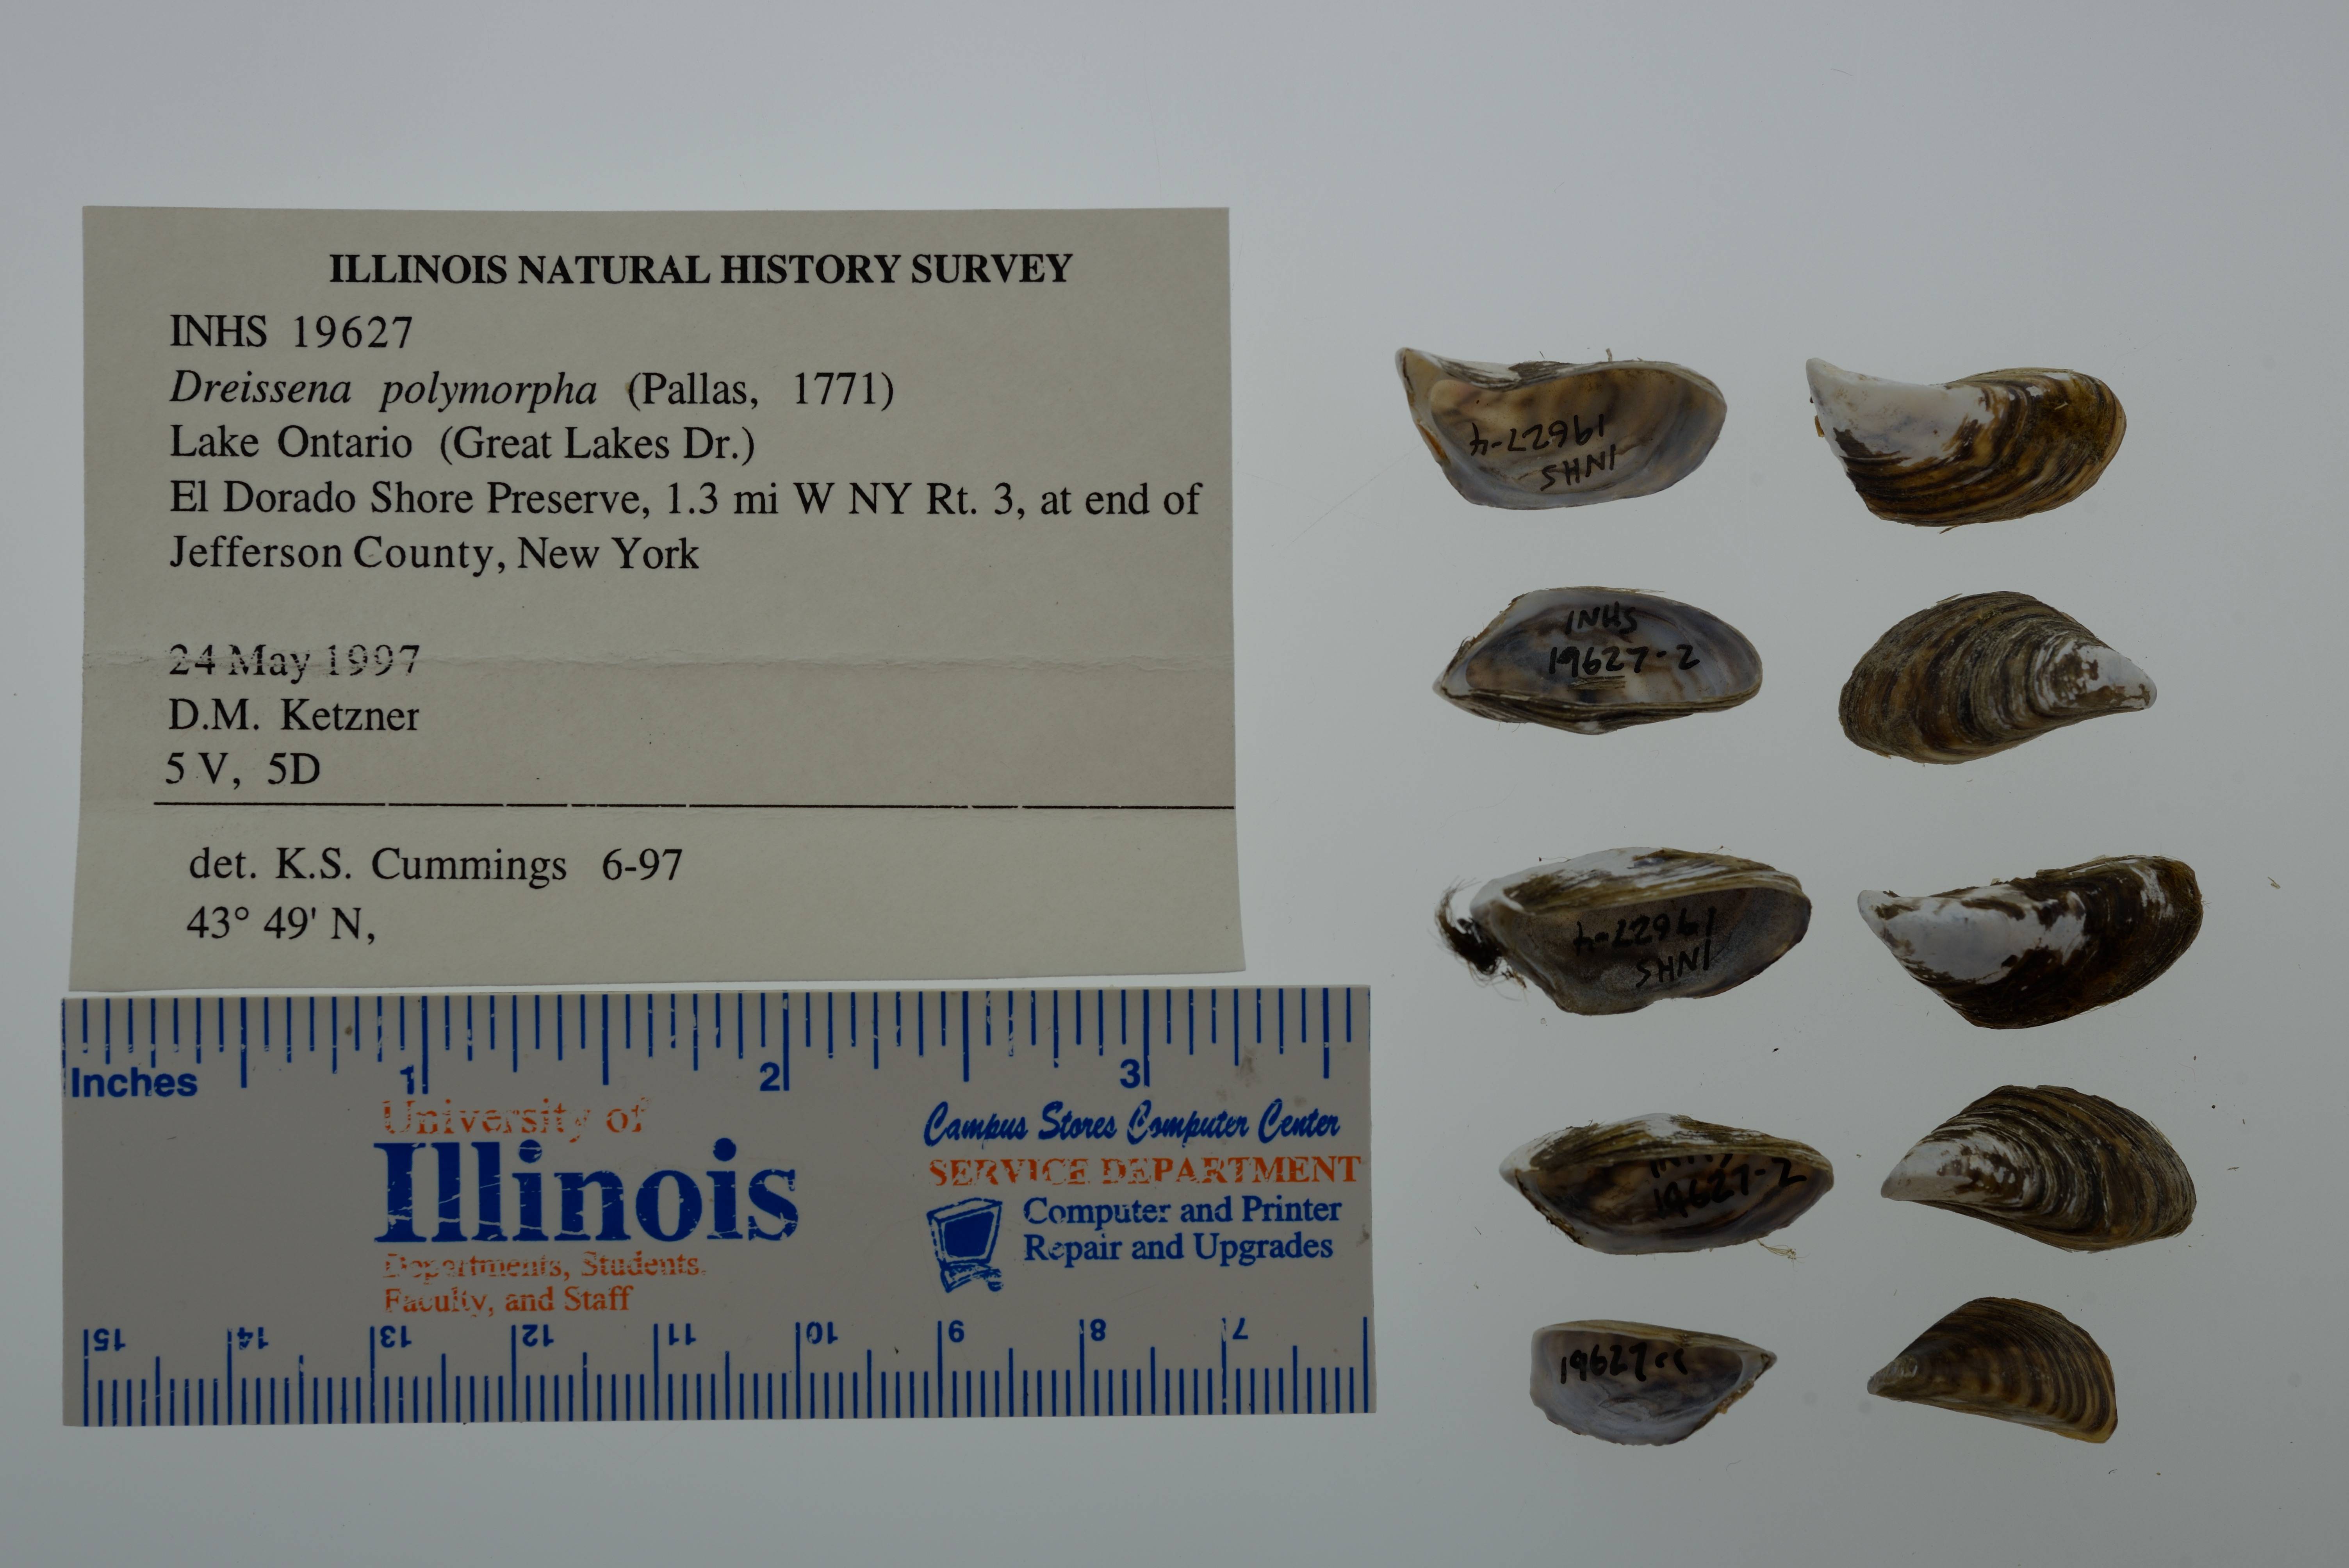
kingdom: Animalia
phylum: Mollusca
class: Bivalvia
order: Myida
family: Dreissenidae
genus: Dreissena
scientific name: Dreissena polymorpha
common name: Zebra mussel
